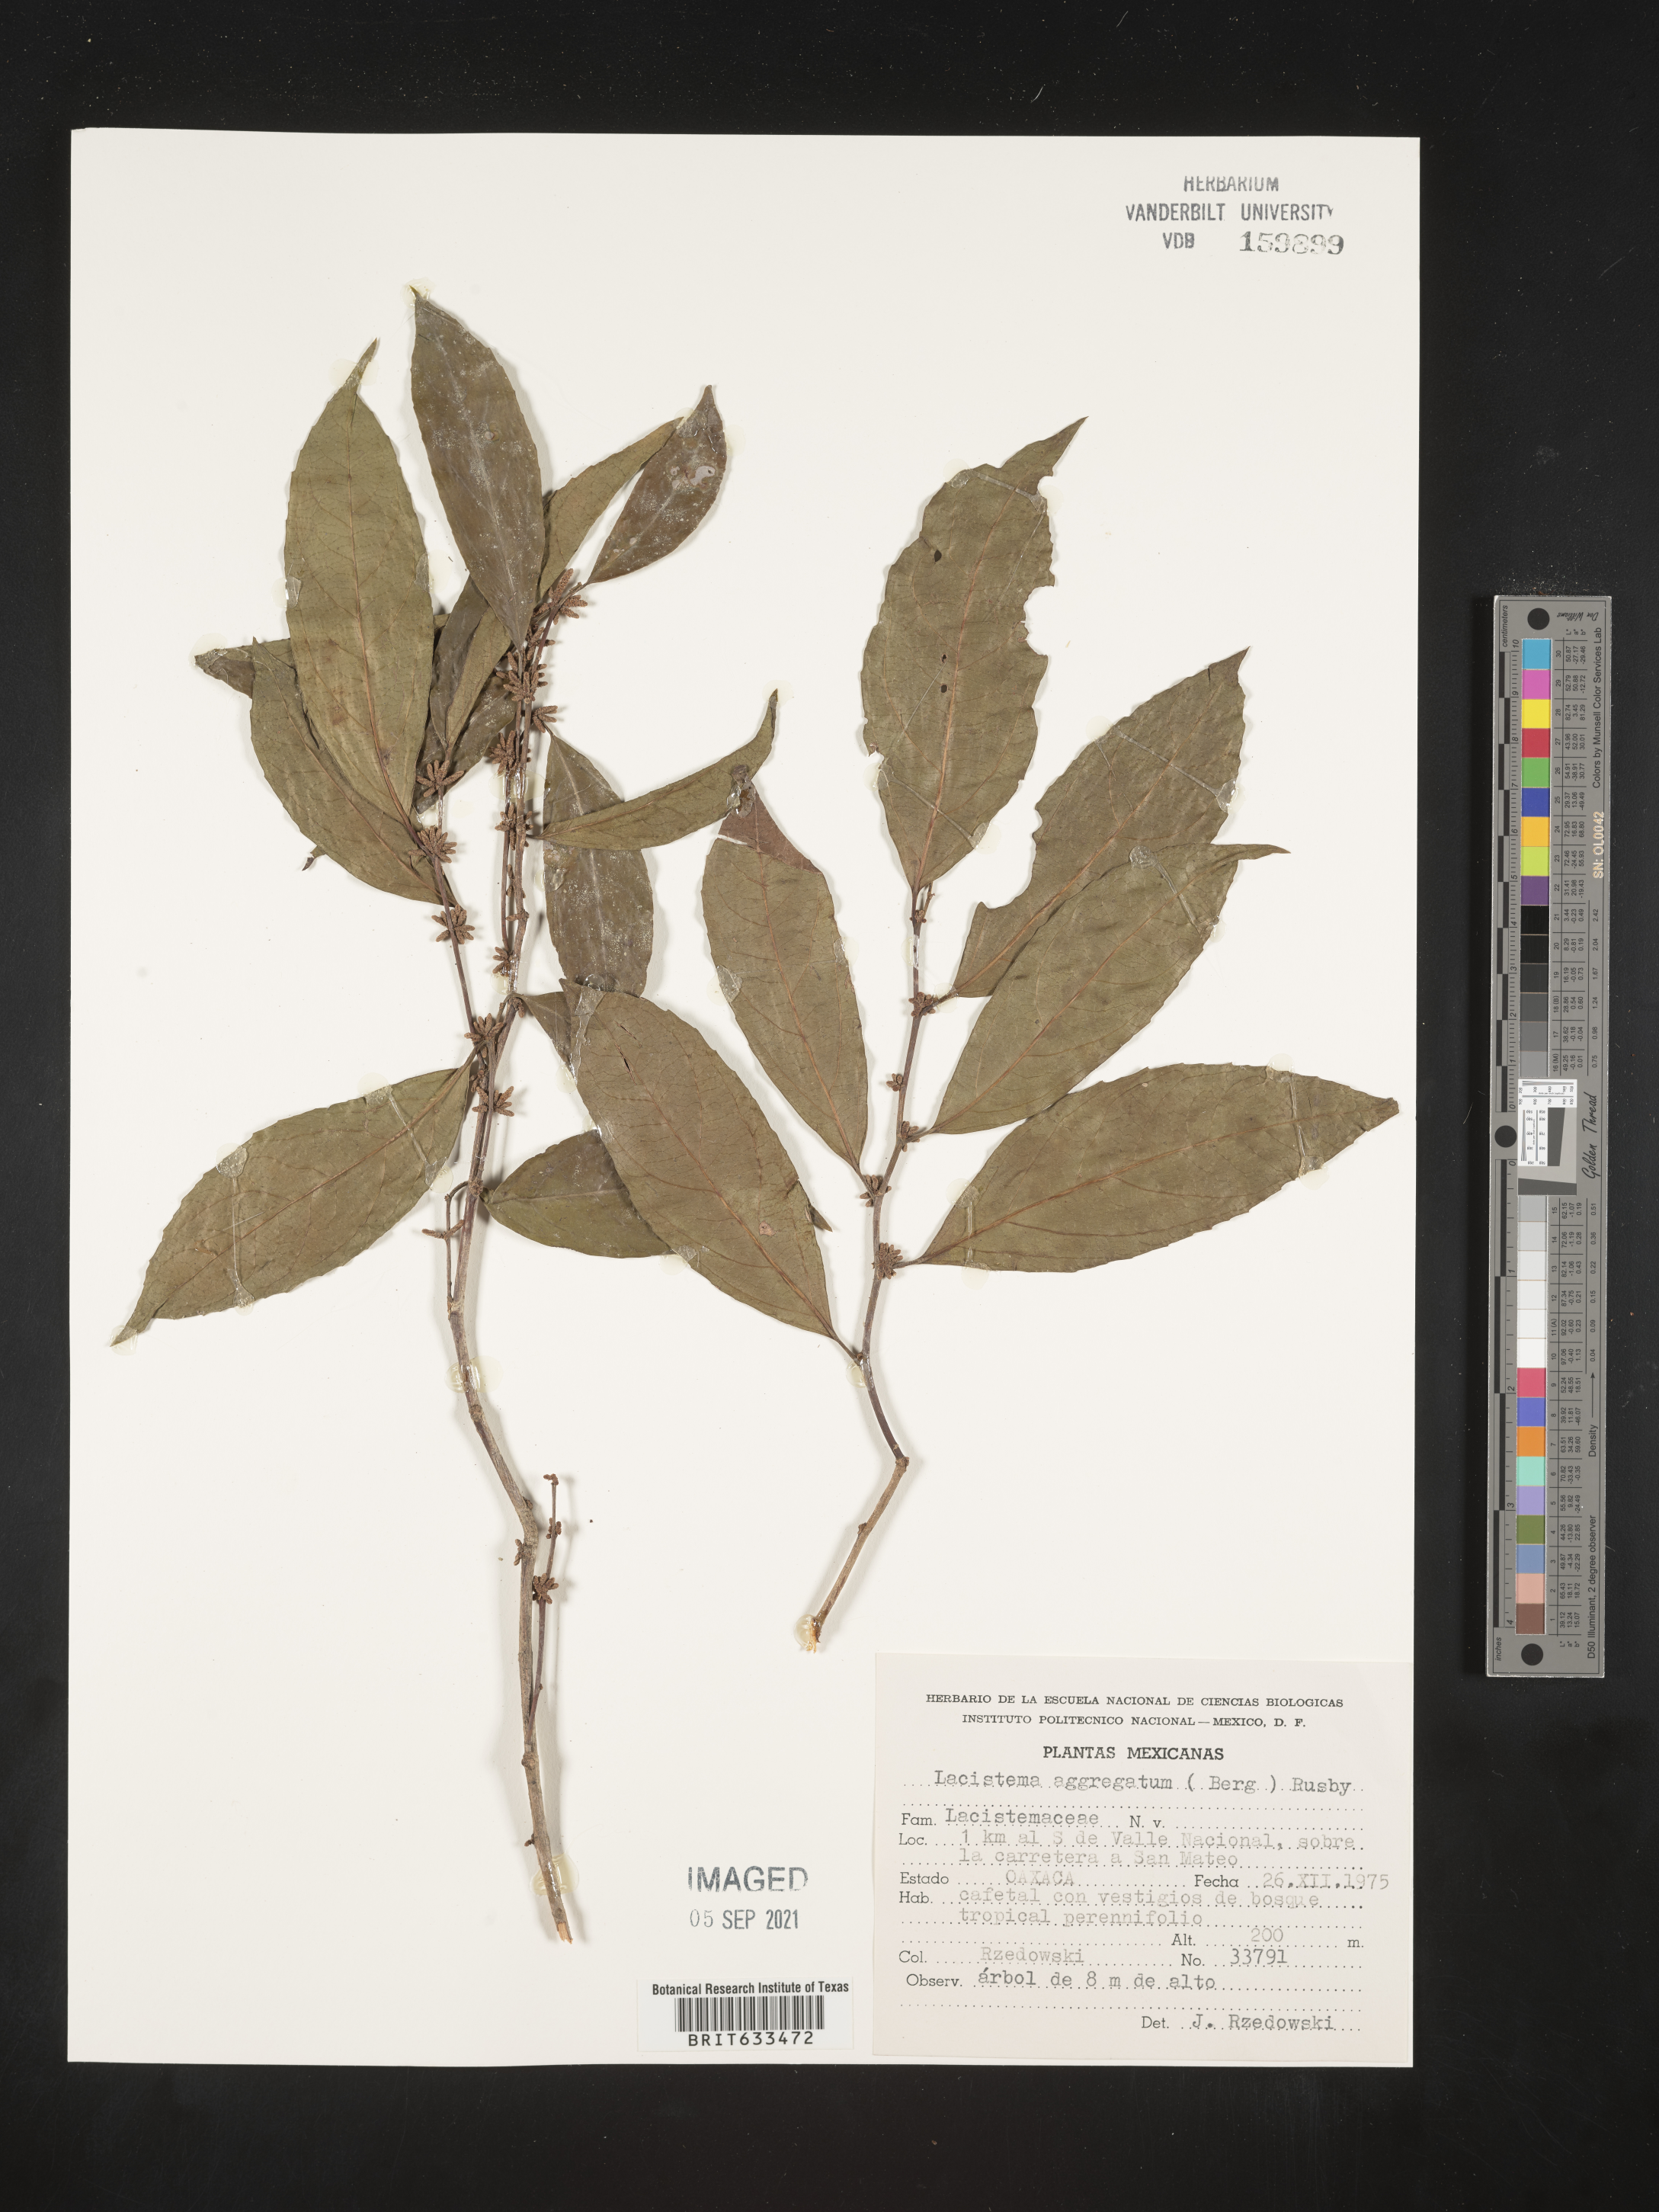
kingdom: Plantae
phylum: Tracheophyta
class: Magnoliopsida
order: Malpighiales
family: Lacistemataceae
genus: Lacistema
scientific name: Lacistema aggregatum
